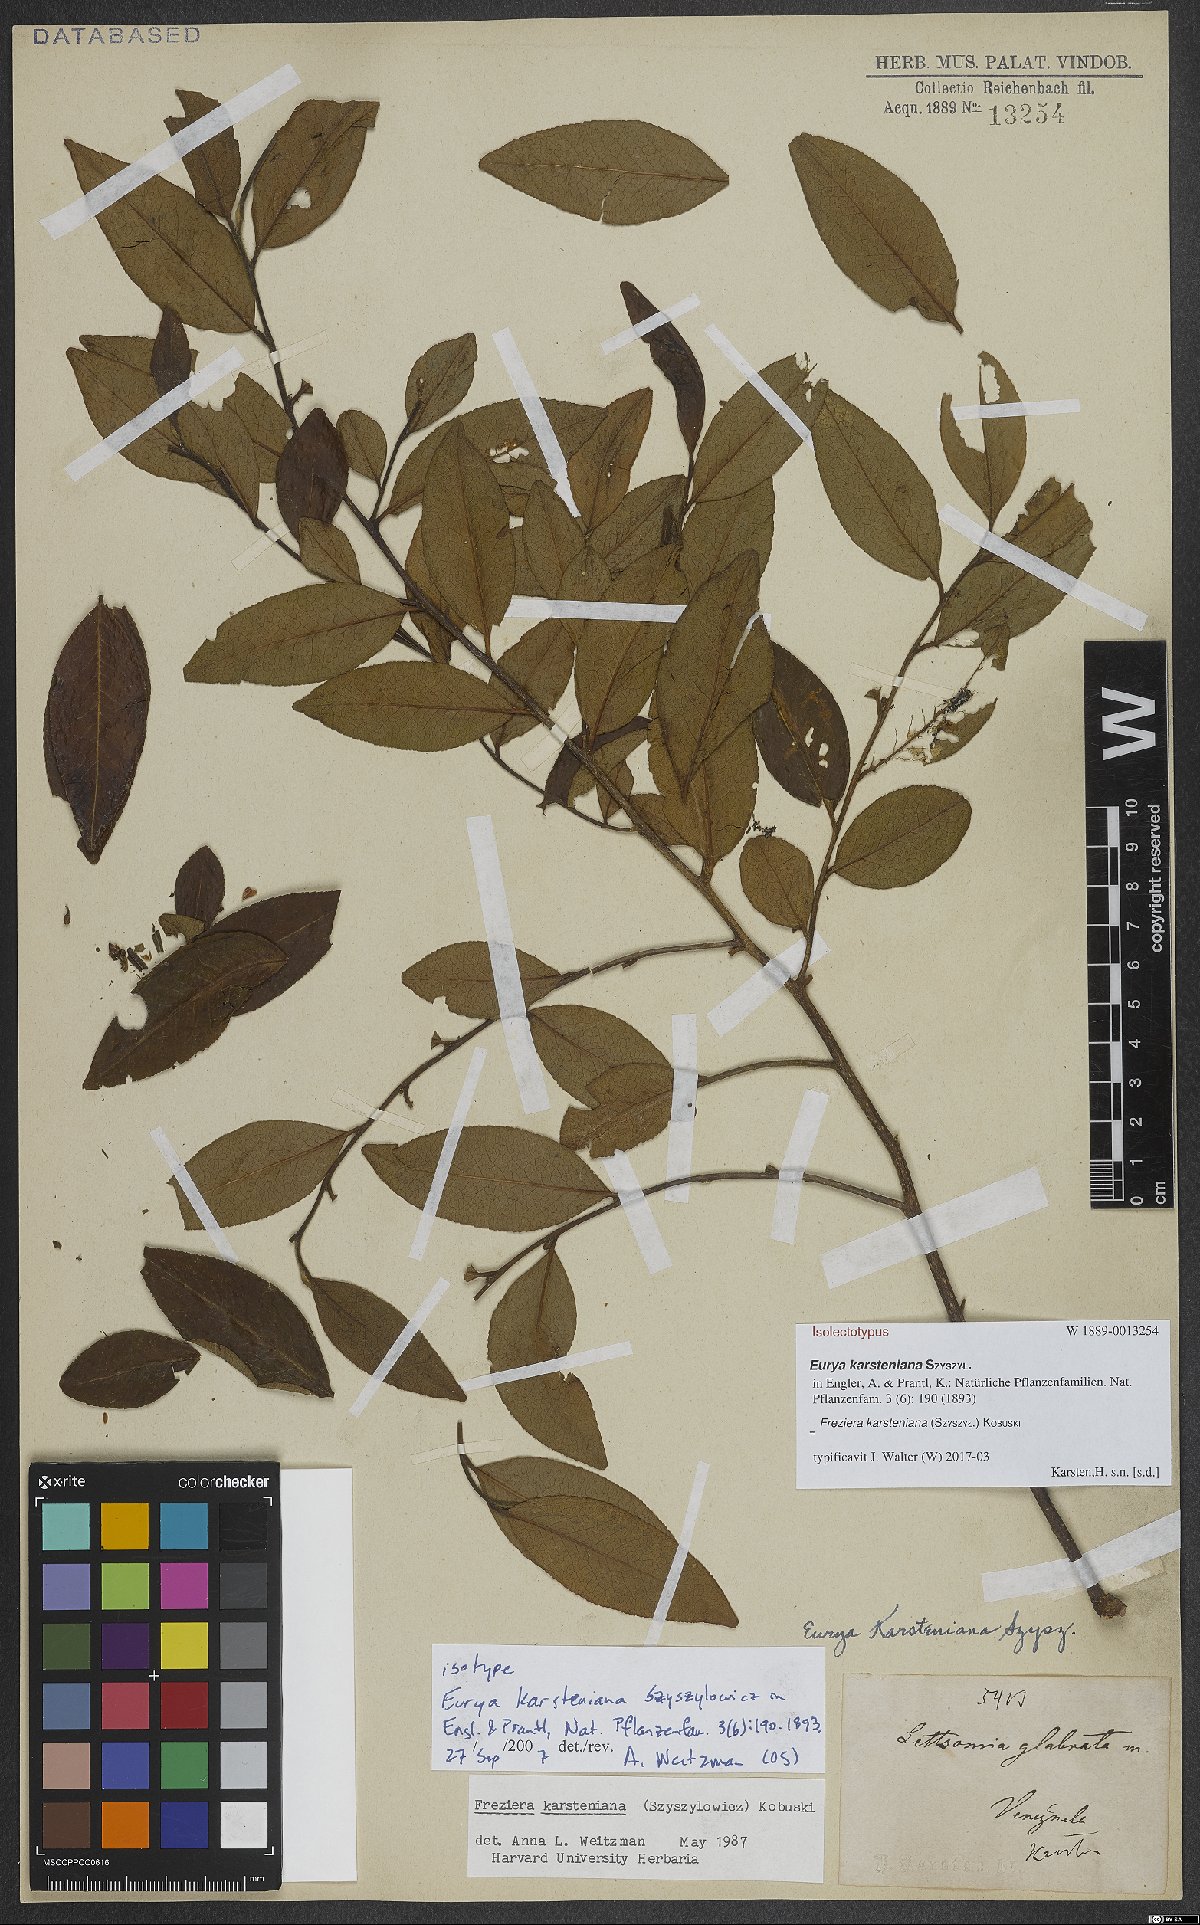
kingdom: Plantae
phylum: Tracheophyta
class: Magnoliopsida
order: Ericales
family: Pentaphylacaceae
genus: Freziera
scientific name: Freziera karsteniana
